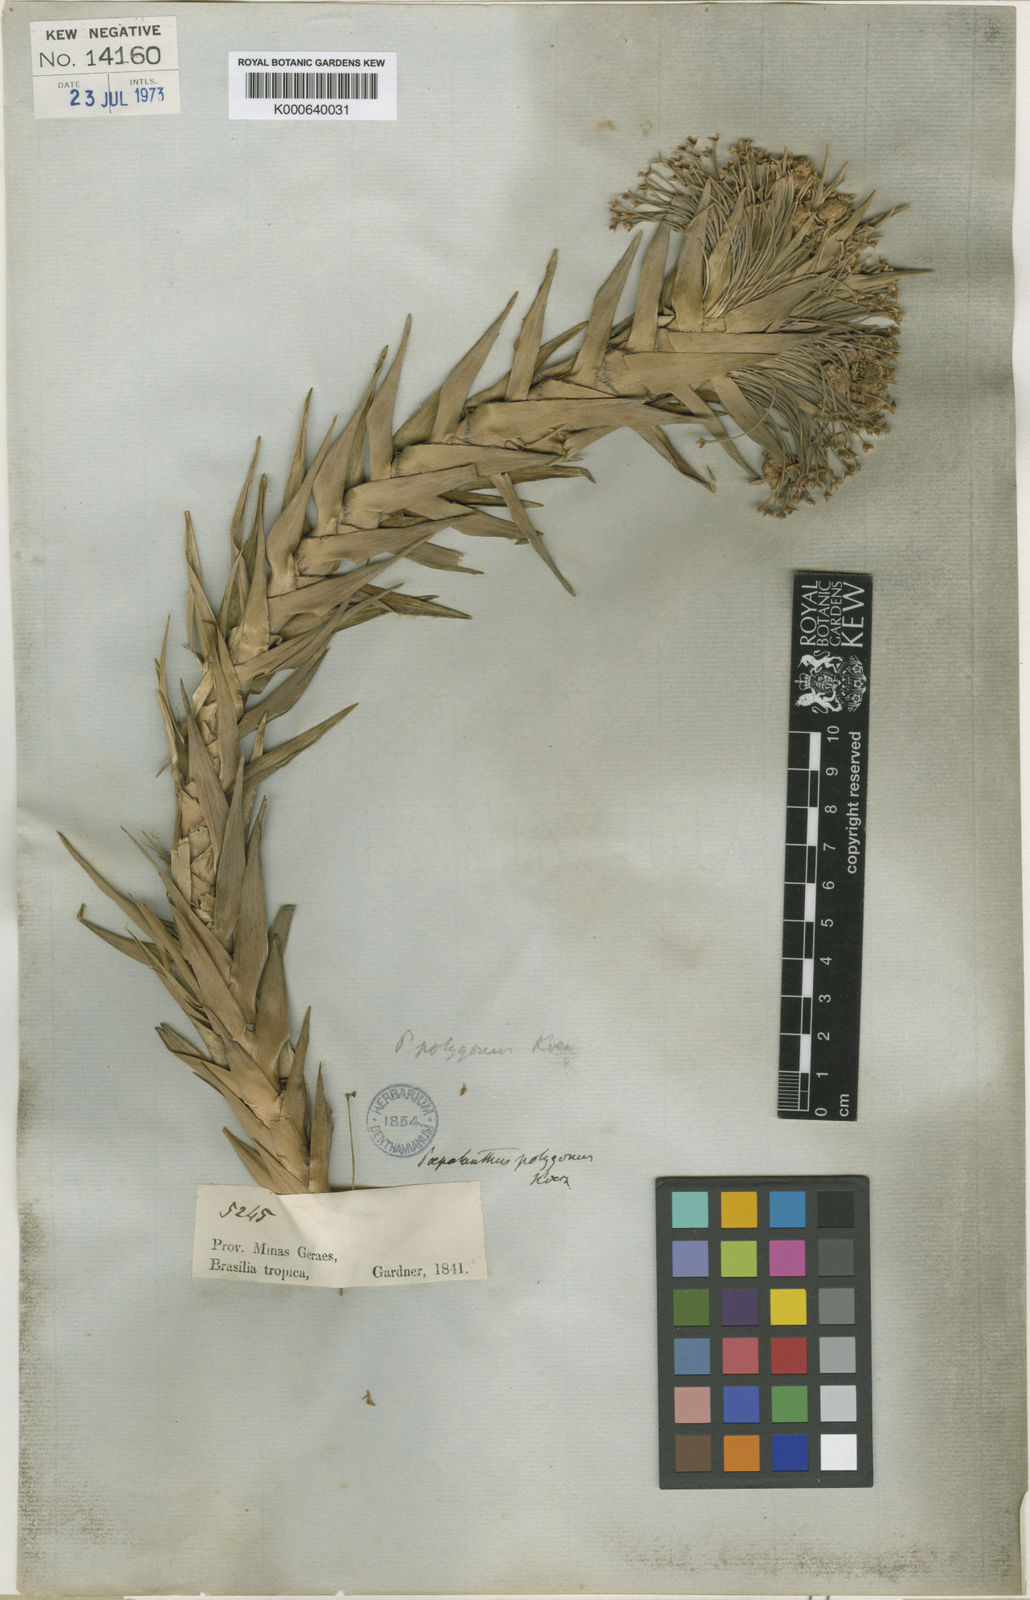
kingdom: Plantae
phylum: Tracheophyta
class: Liliopsida
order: Poales
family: Eriocaulaceae
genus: Paepalanthus
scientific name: Paepalanthus
